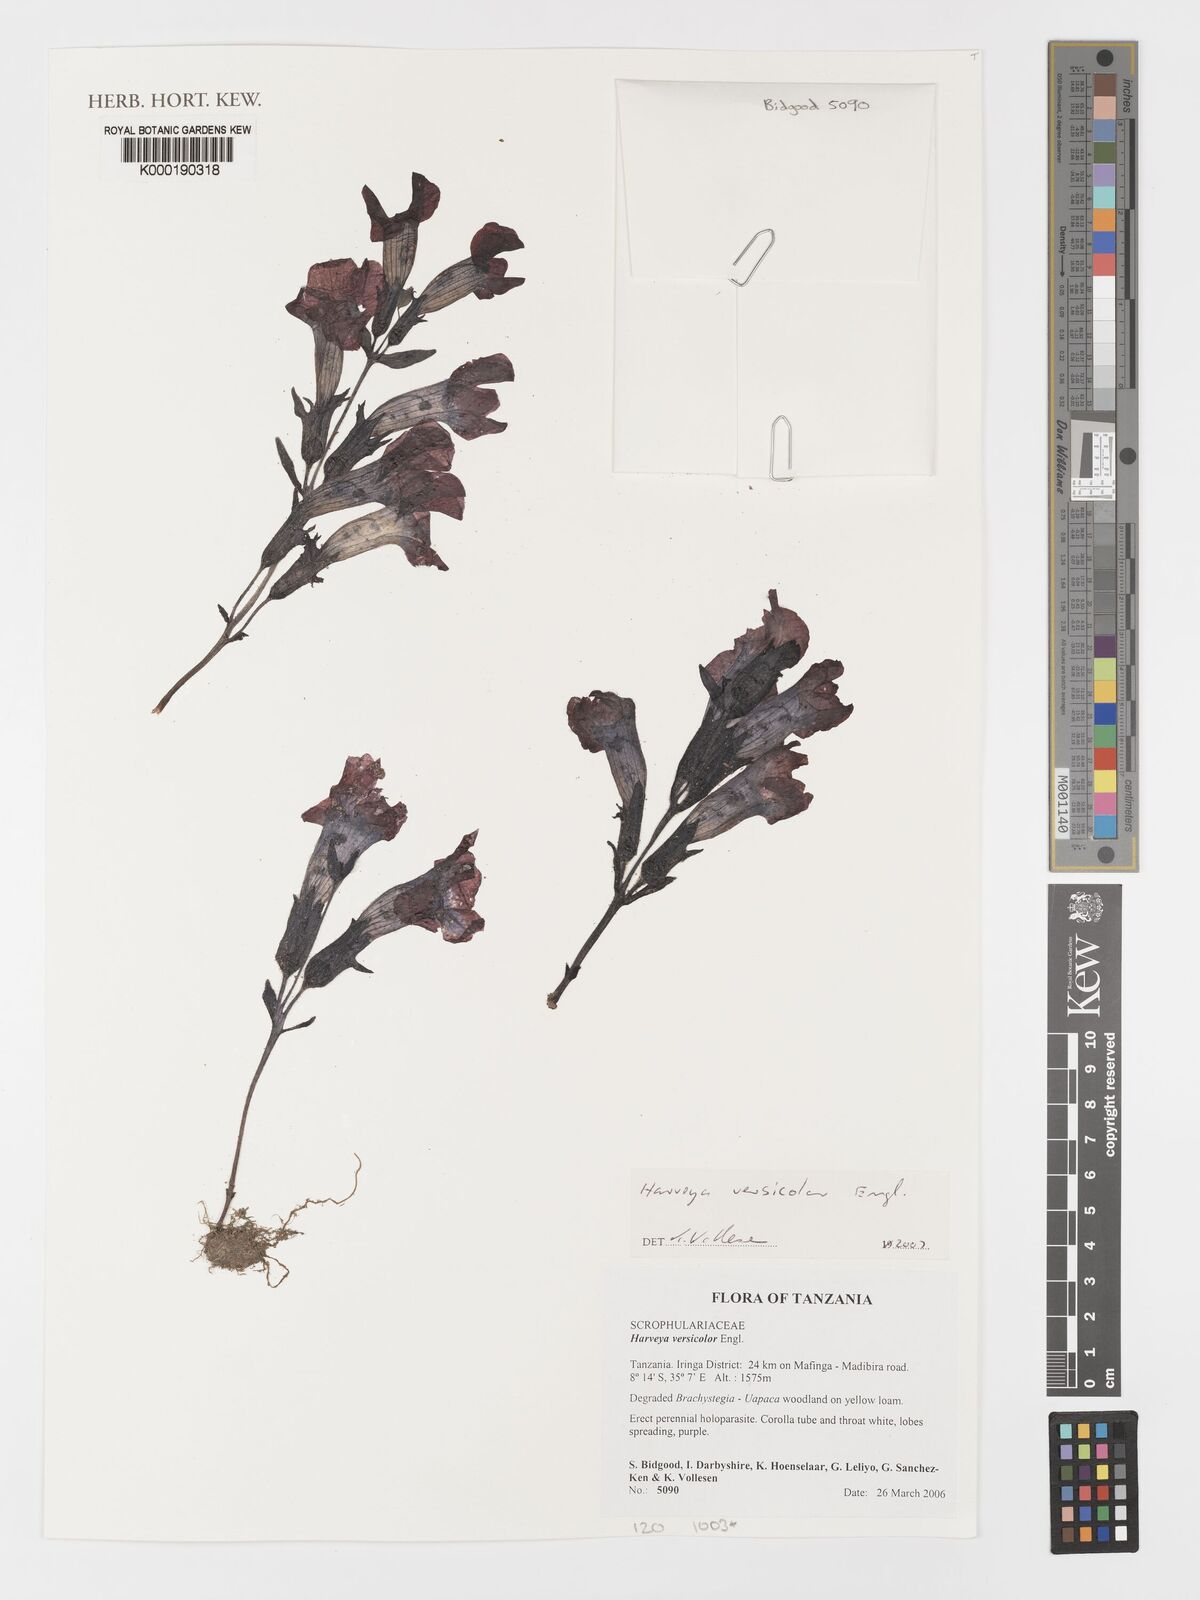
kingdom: Plantae
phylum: Tracheophyta
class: Magnoliopsida
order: Lamiales
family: Orobanchaceae
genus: Harveya
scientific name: Harveya versicolor
